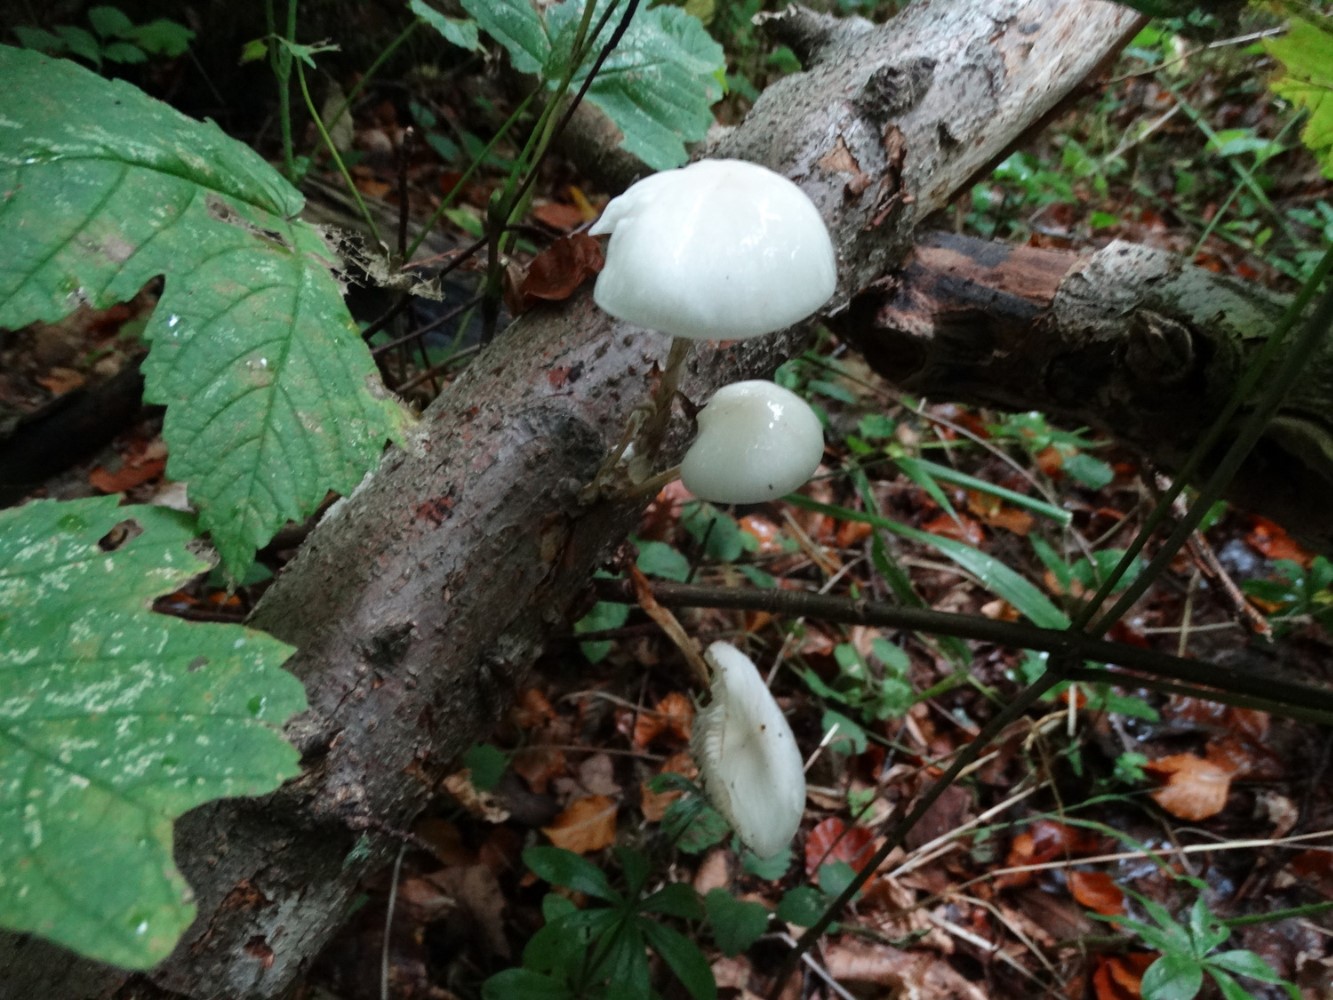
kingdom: Fungi
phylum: Basidiomycota
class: Agaricomycetes
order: Agaricales
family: Physalacriaceae
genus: Mucidula
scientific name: Mucidula mucida
